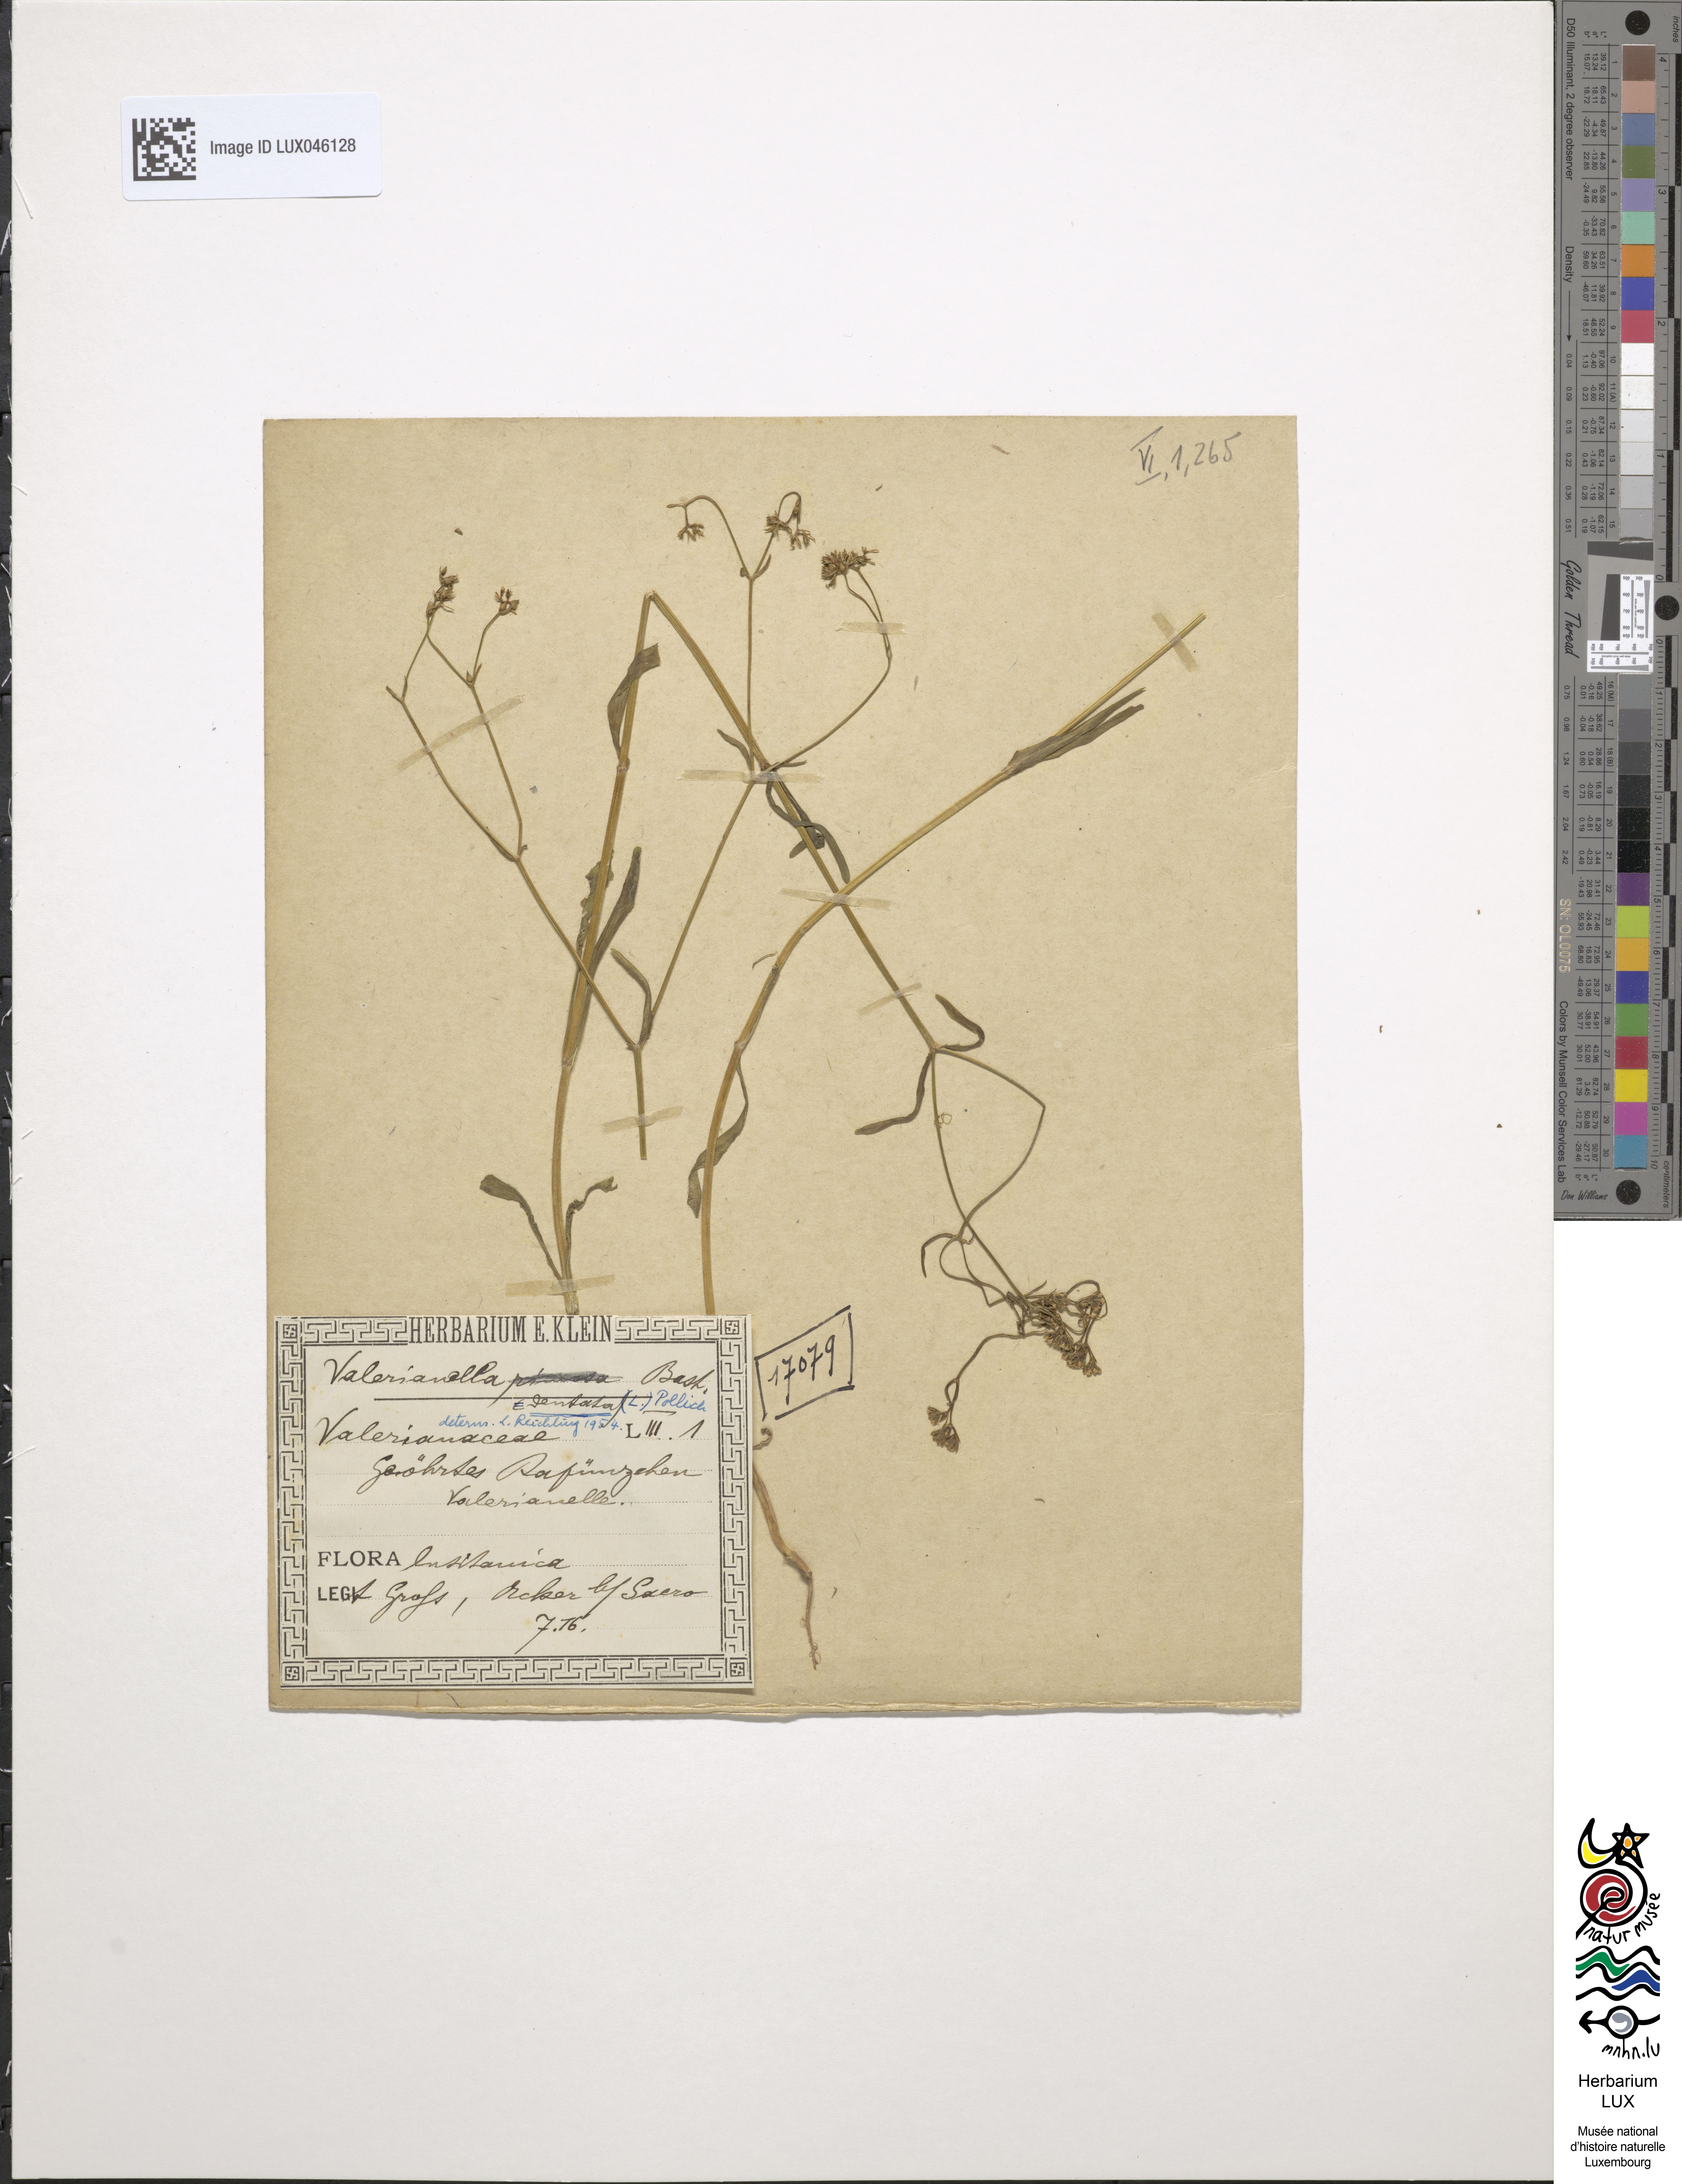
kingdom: Plantae
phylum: Tracheophyta
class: Magnoliopsida
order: Dipsacales
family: Caprifoliaceae
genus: Valerianella
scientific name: Valerianella rimosa
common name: Broad-fruited cornsalad
